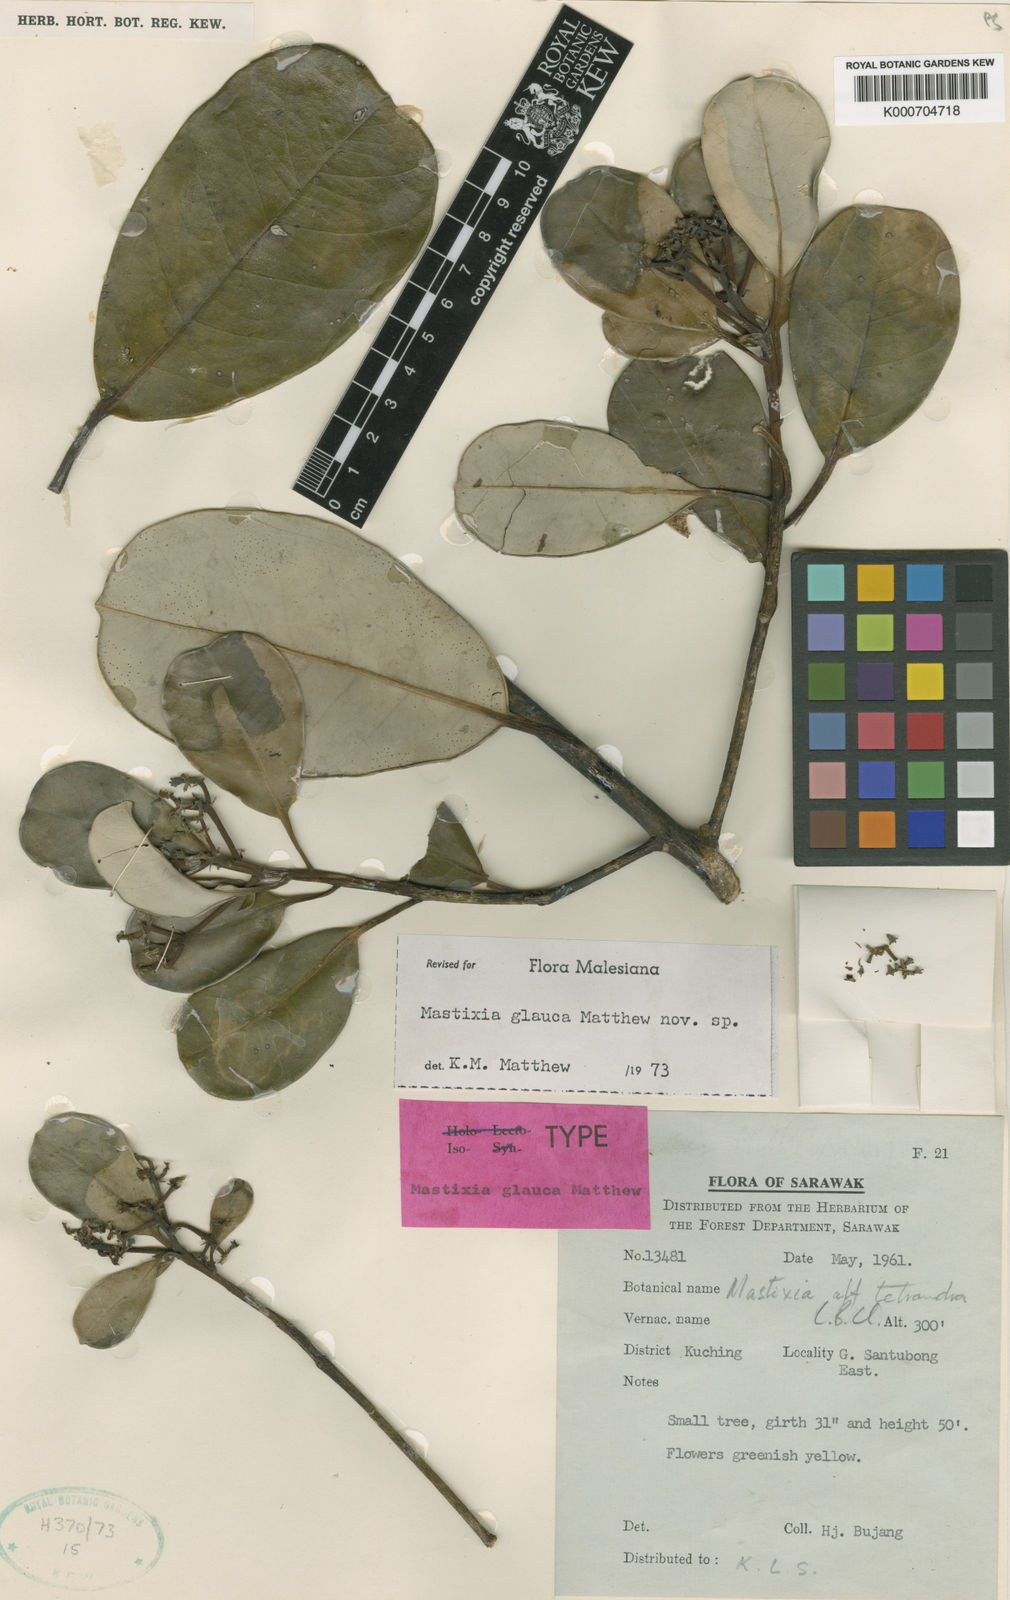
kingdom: Plantae
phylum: Tracheophyta
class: Magnoliopsida
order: Cornales
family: Nyssaceae
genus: Mastixia
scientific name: Mastixia glauca
